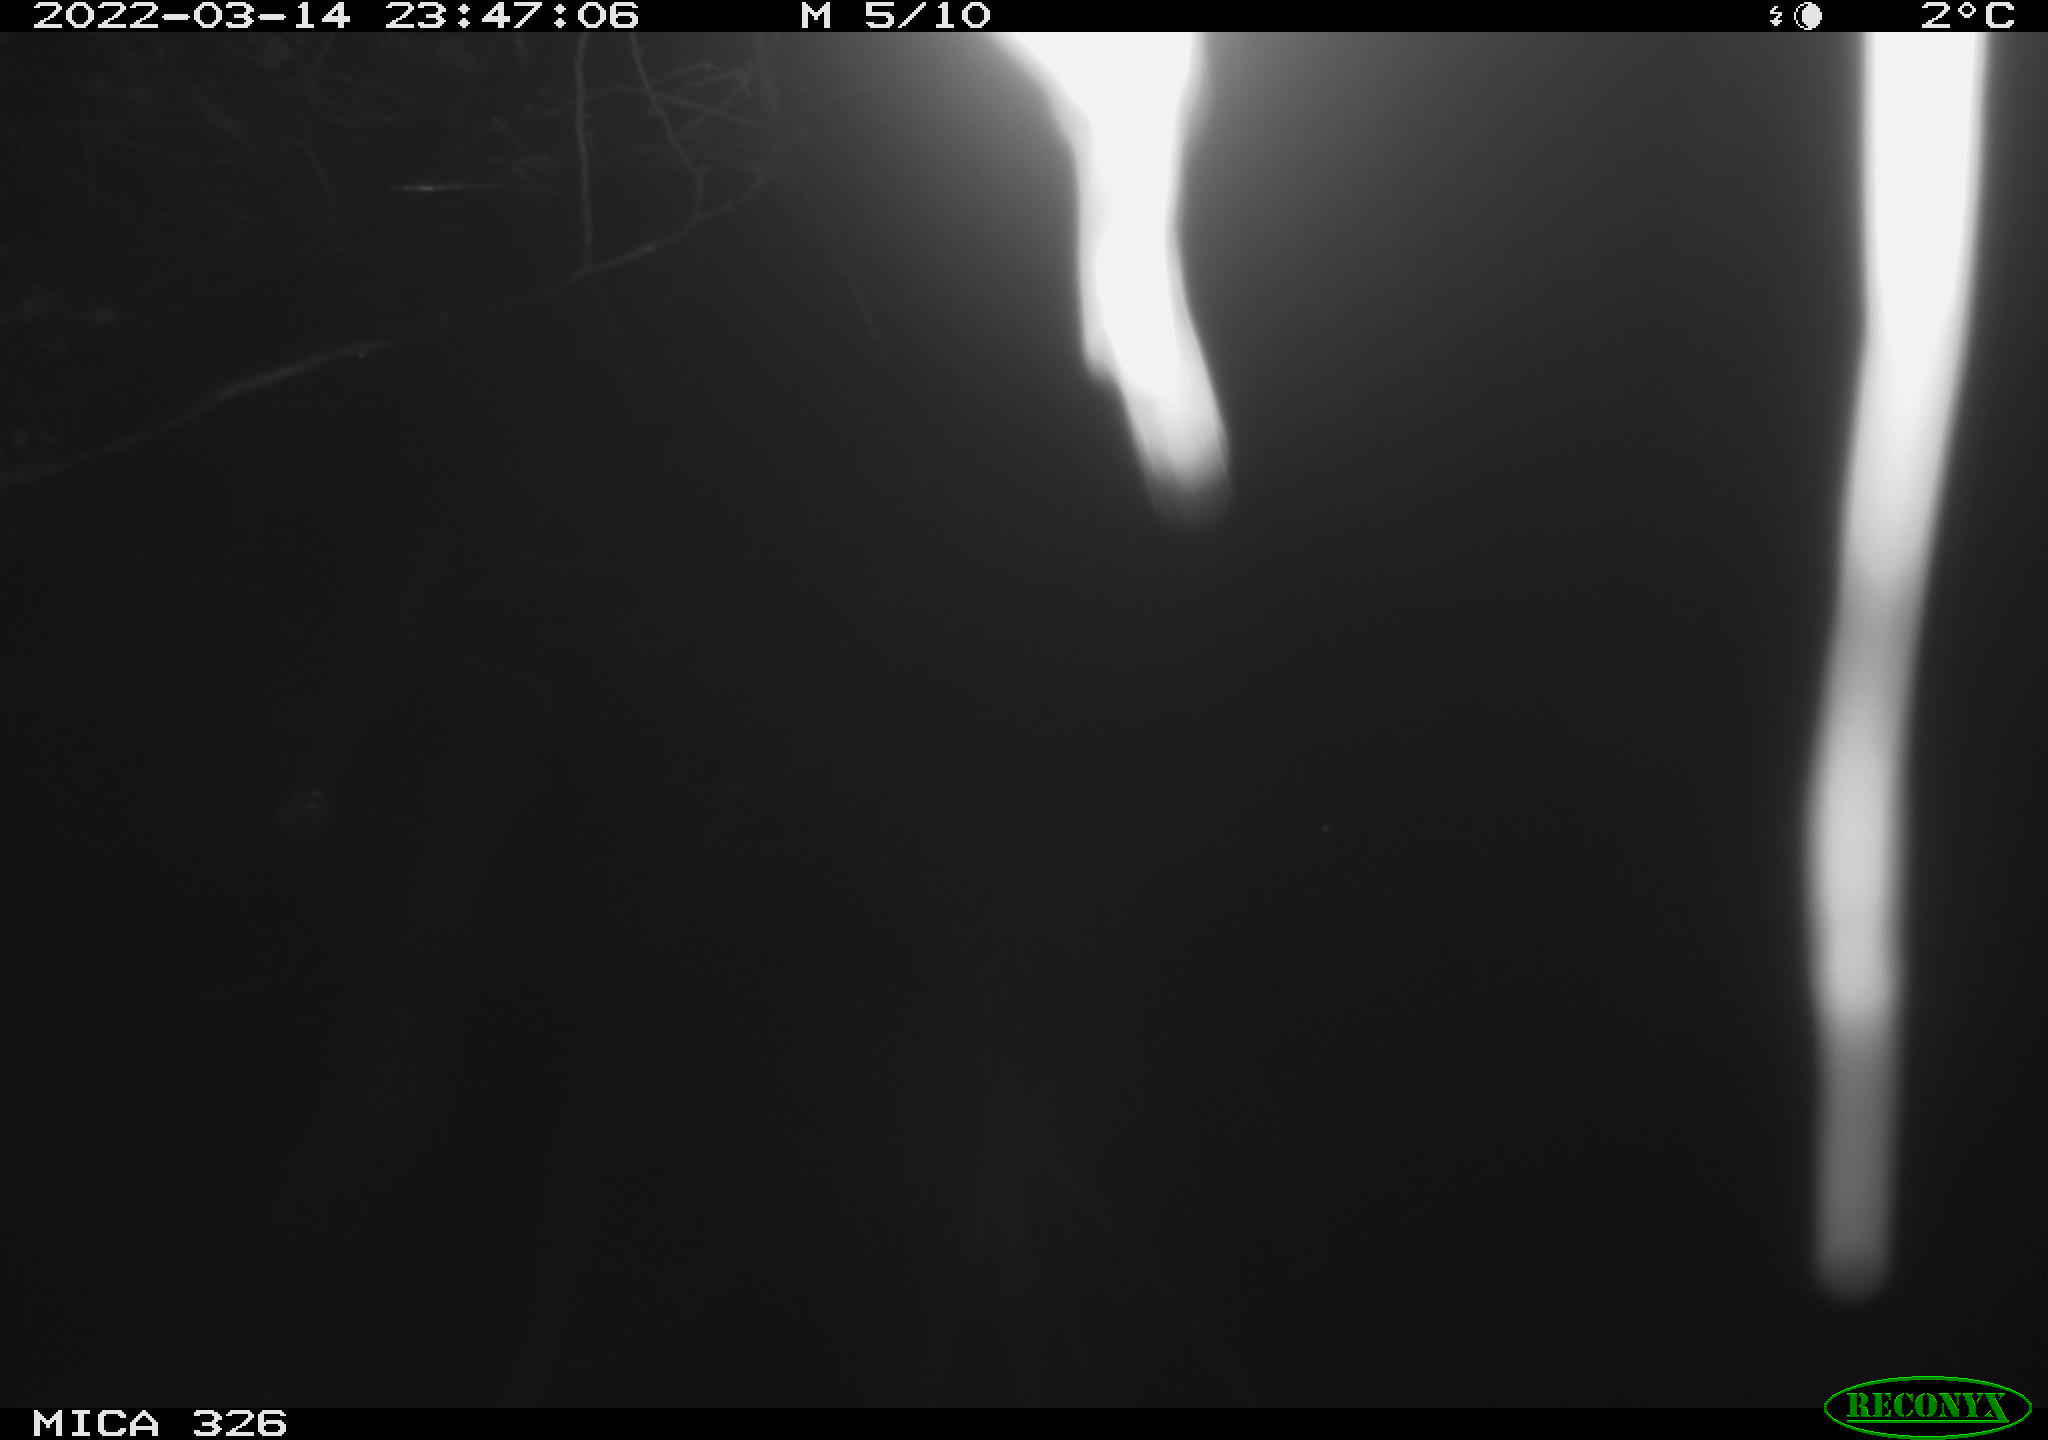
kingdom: Animalia
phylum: Chordata
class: Mammalia
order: Rodentia
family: Muridae
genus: Rattus
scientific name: Rattus norvegicus
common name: Brown rat
